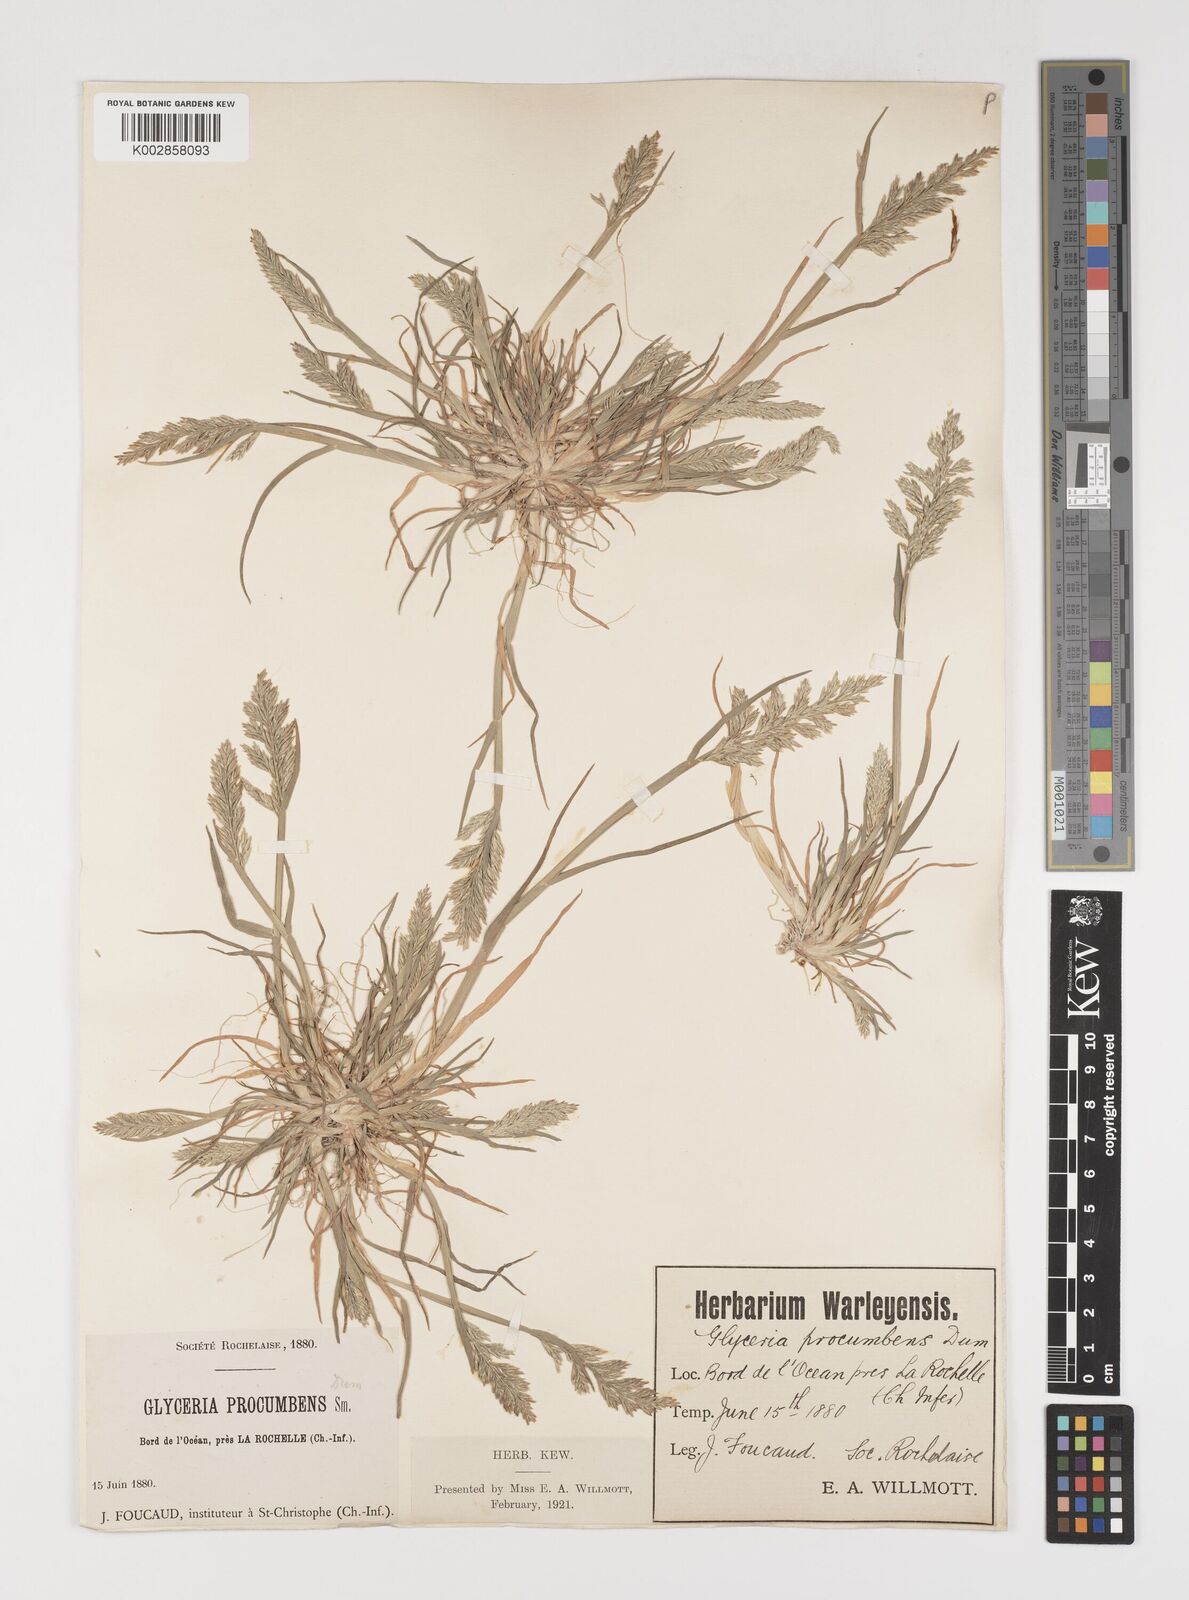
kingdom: Plantae
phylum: Tracheophyta
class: Liliopsida
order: Poales
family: Poaceae
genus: Puccinellia
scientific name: Puccinellia rupestris
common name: Stiff saltmarsh-grass
